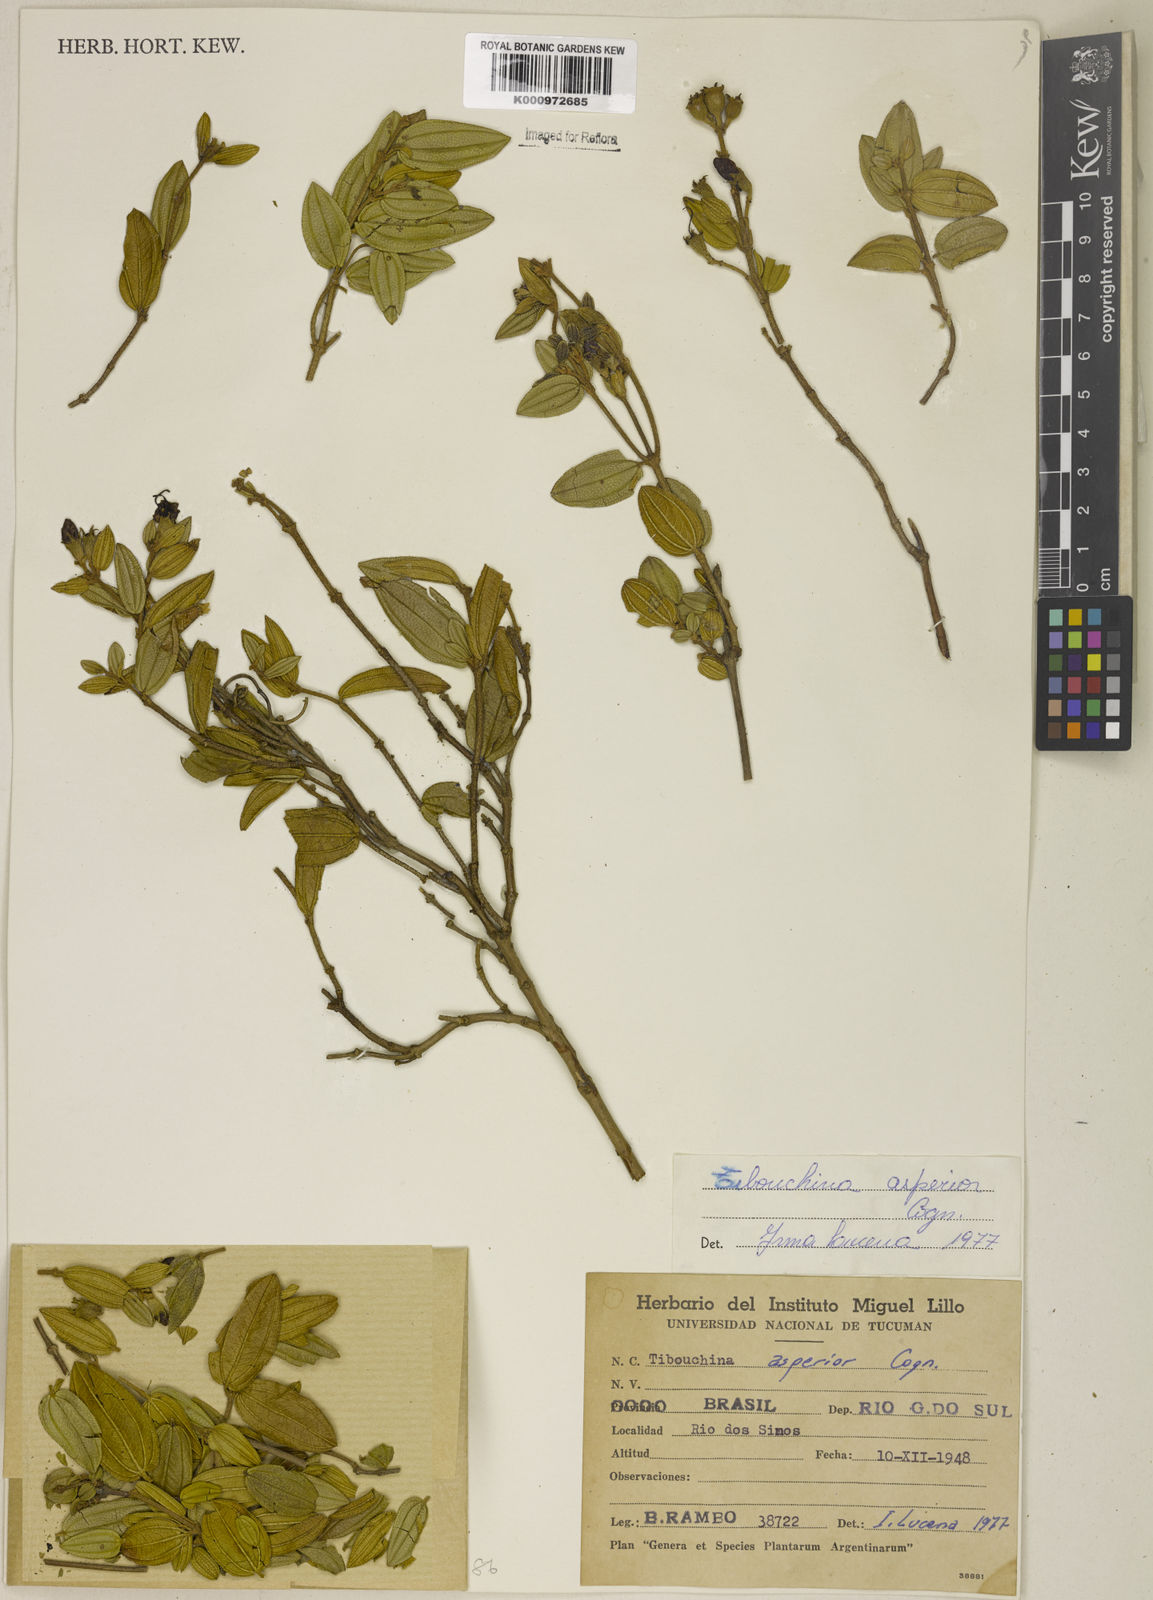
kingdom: Plantae
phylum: Tracheophyta
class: Magnoliopsida
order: Myrtales
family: Melastomataceae
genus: Pleroma
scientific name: Pleroma asperius
